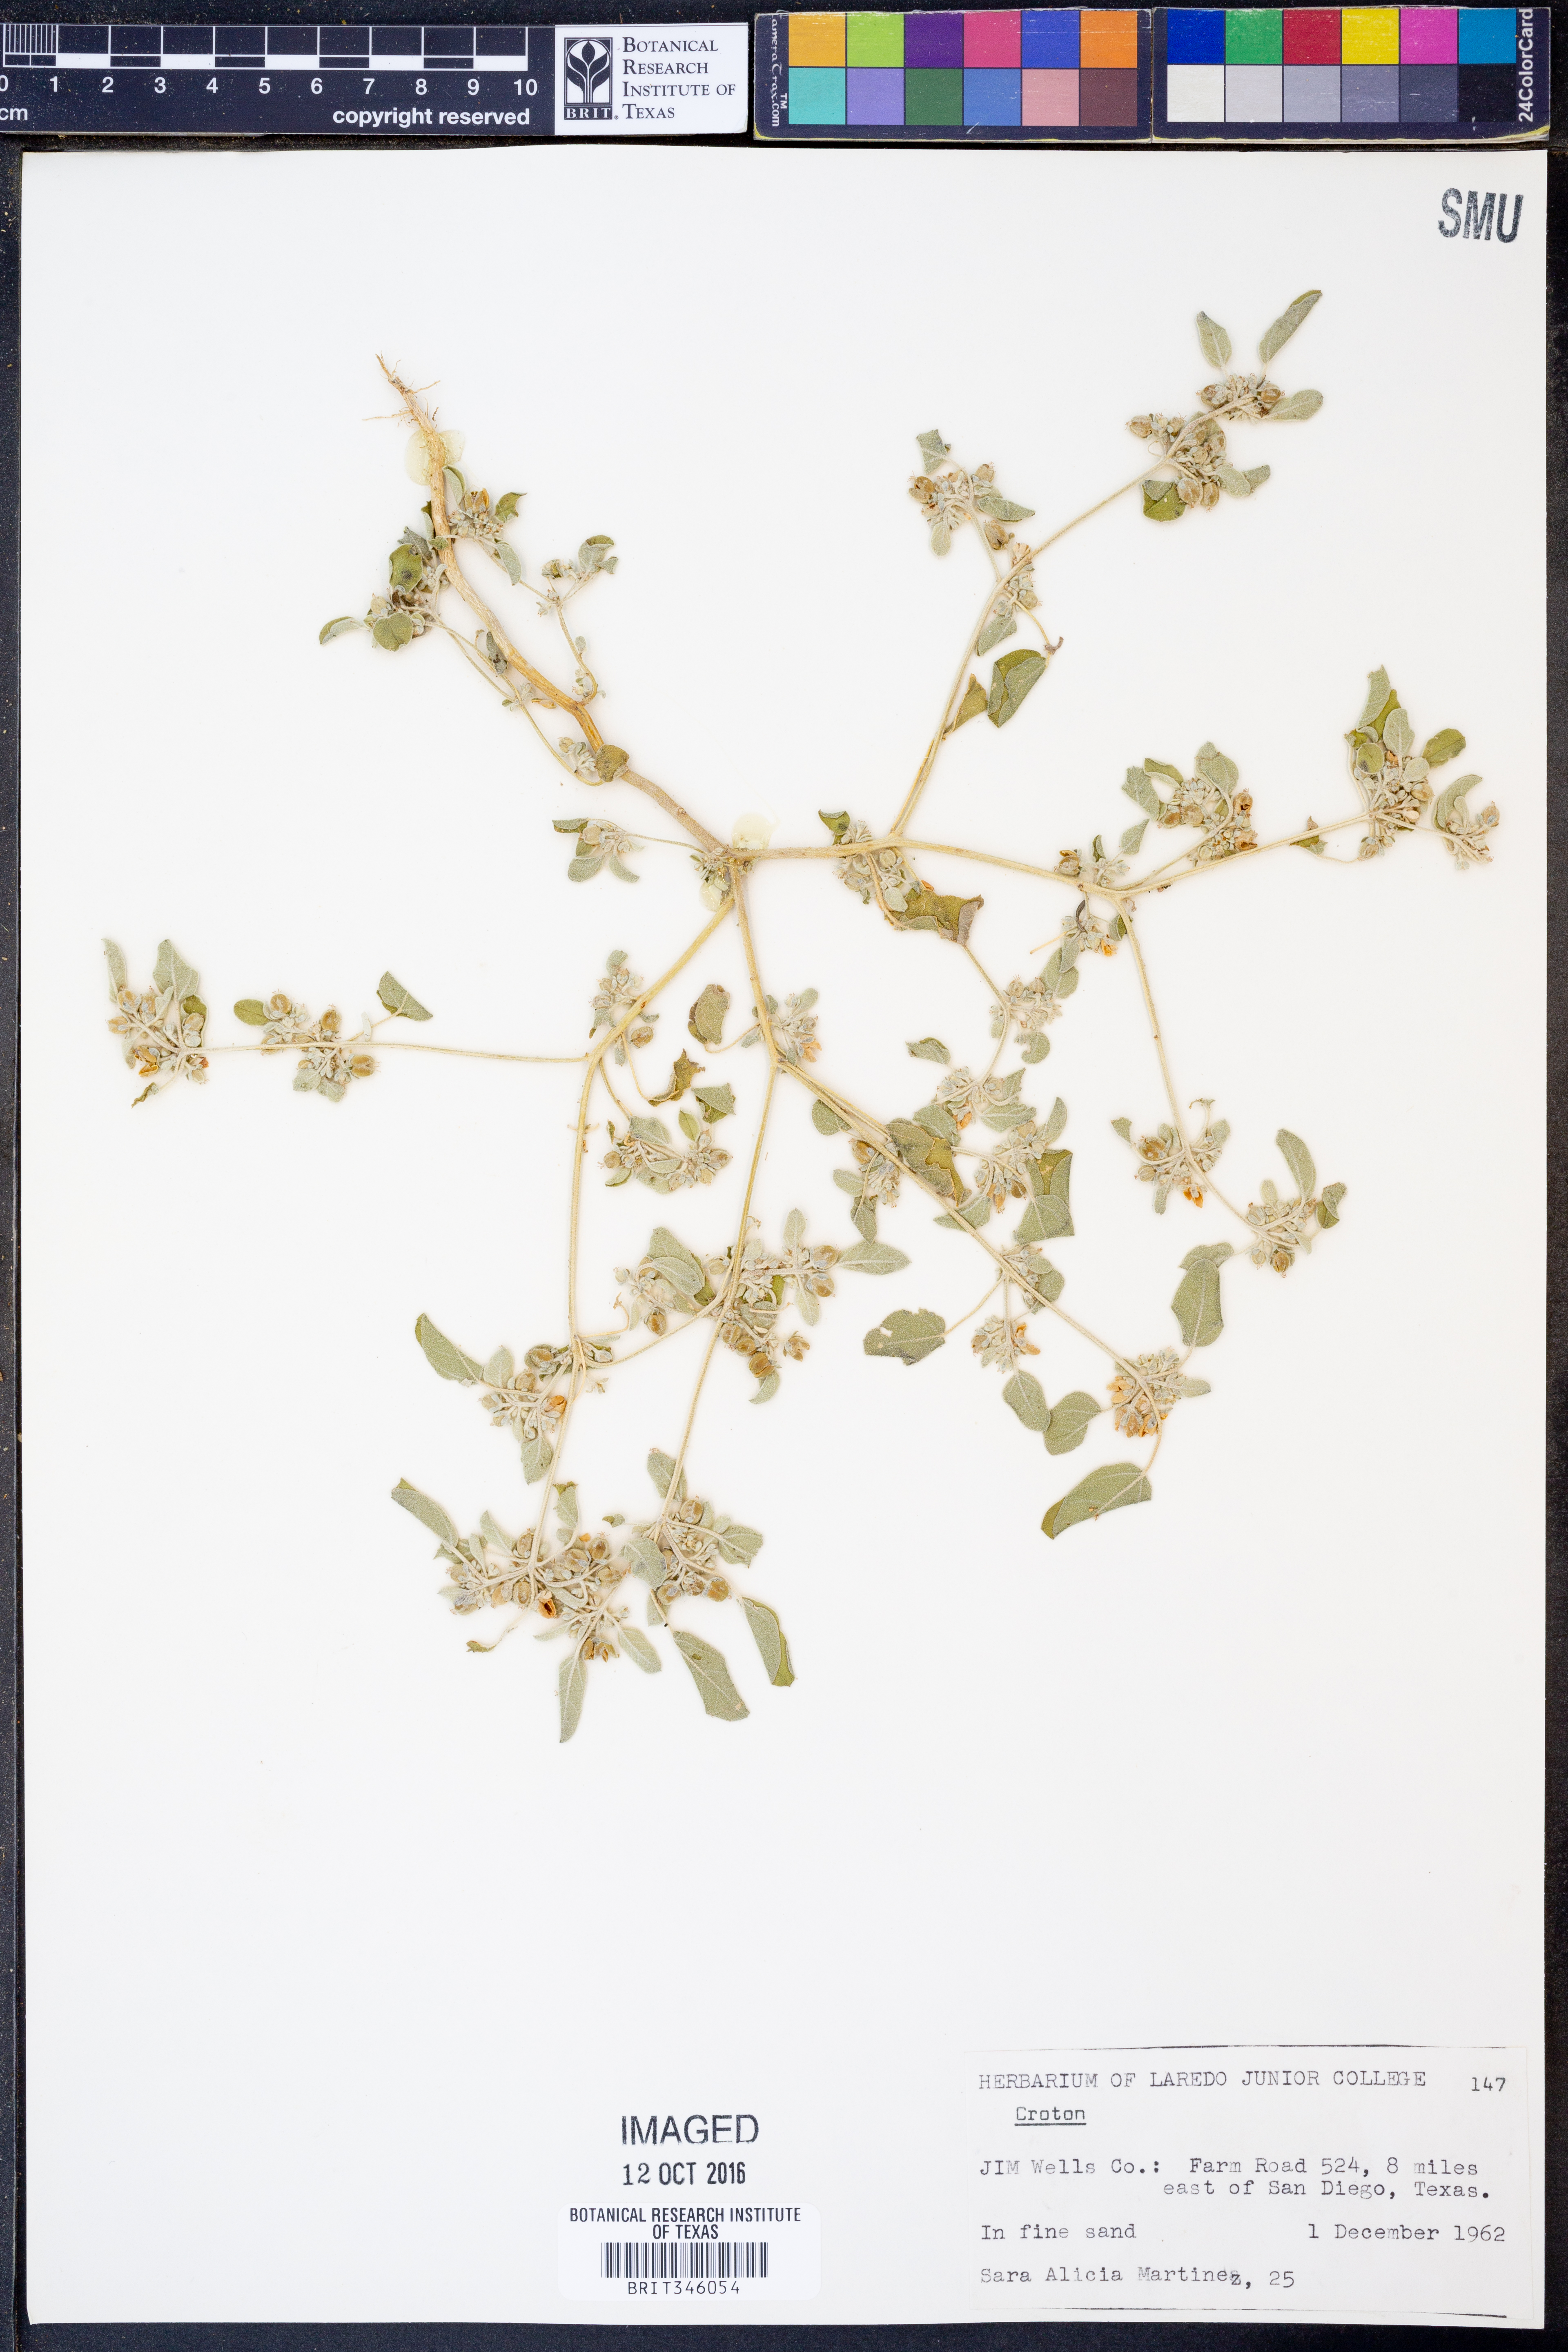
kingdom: Plantae
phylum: Tracheophyta
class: Magnoliopsida
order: Malpighiales
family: Euphorbiaceae
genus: Croton
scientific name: Croton
